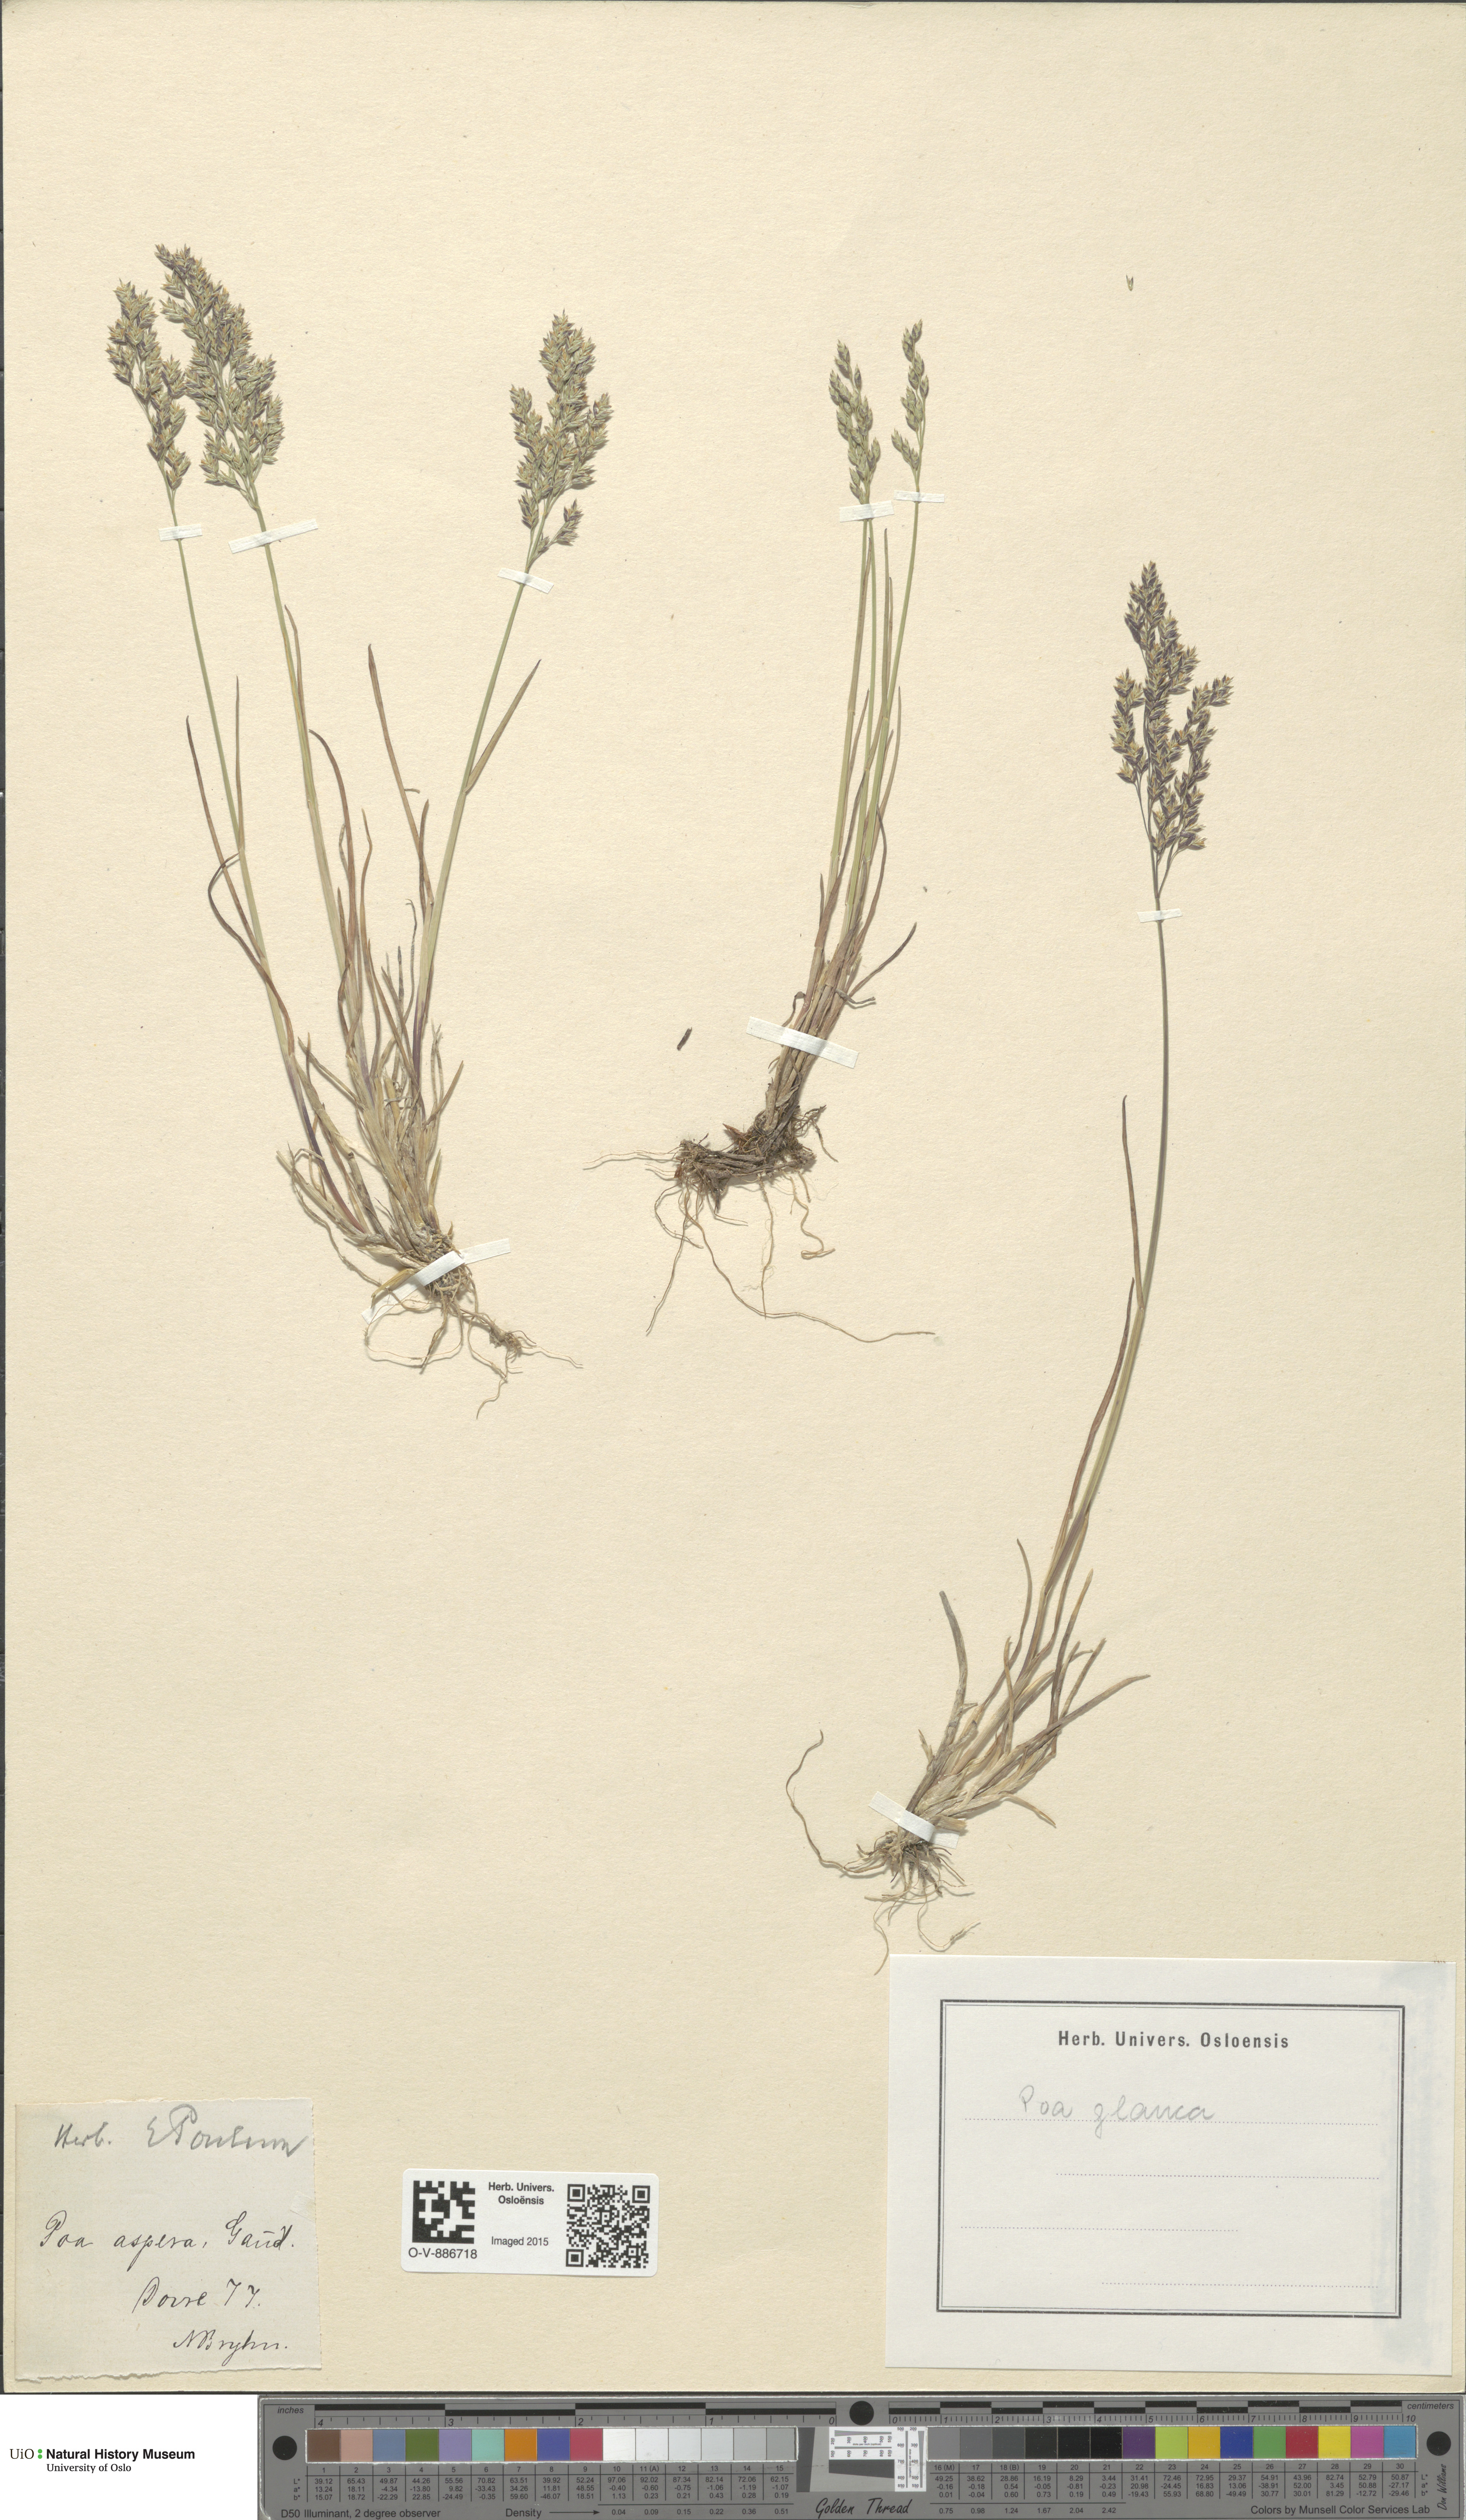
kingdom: Plantae
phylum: Tracheophyta
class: Liliopsida
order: Poales
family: Poaceae
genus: Poa
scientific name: Poa glauca
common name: Glaucous bluegrass
